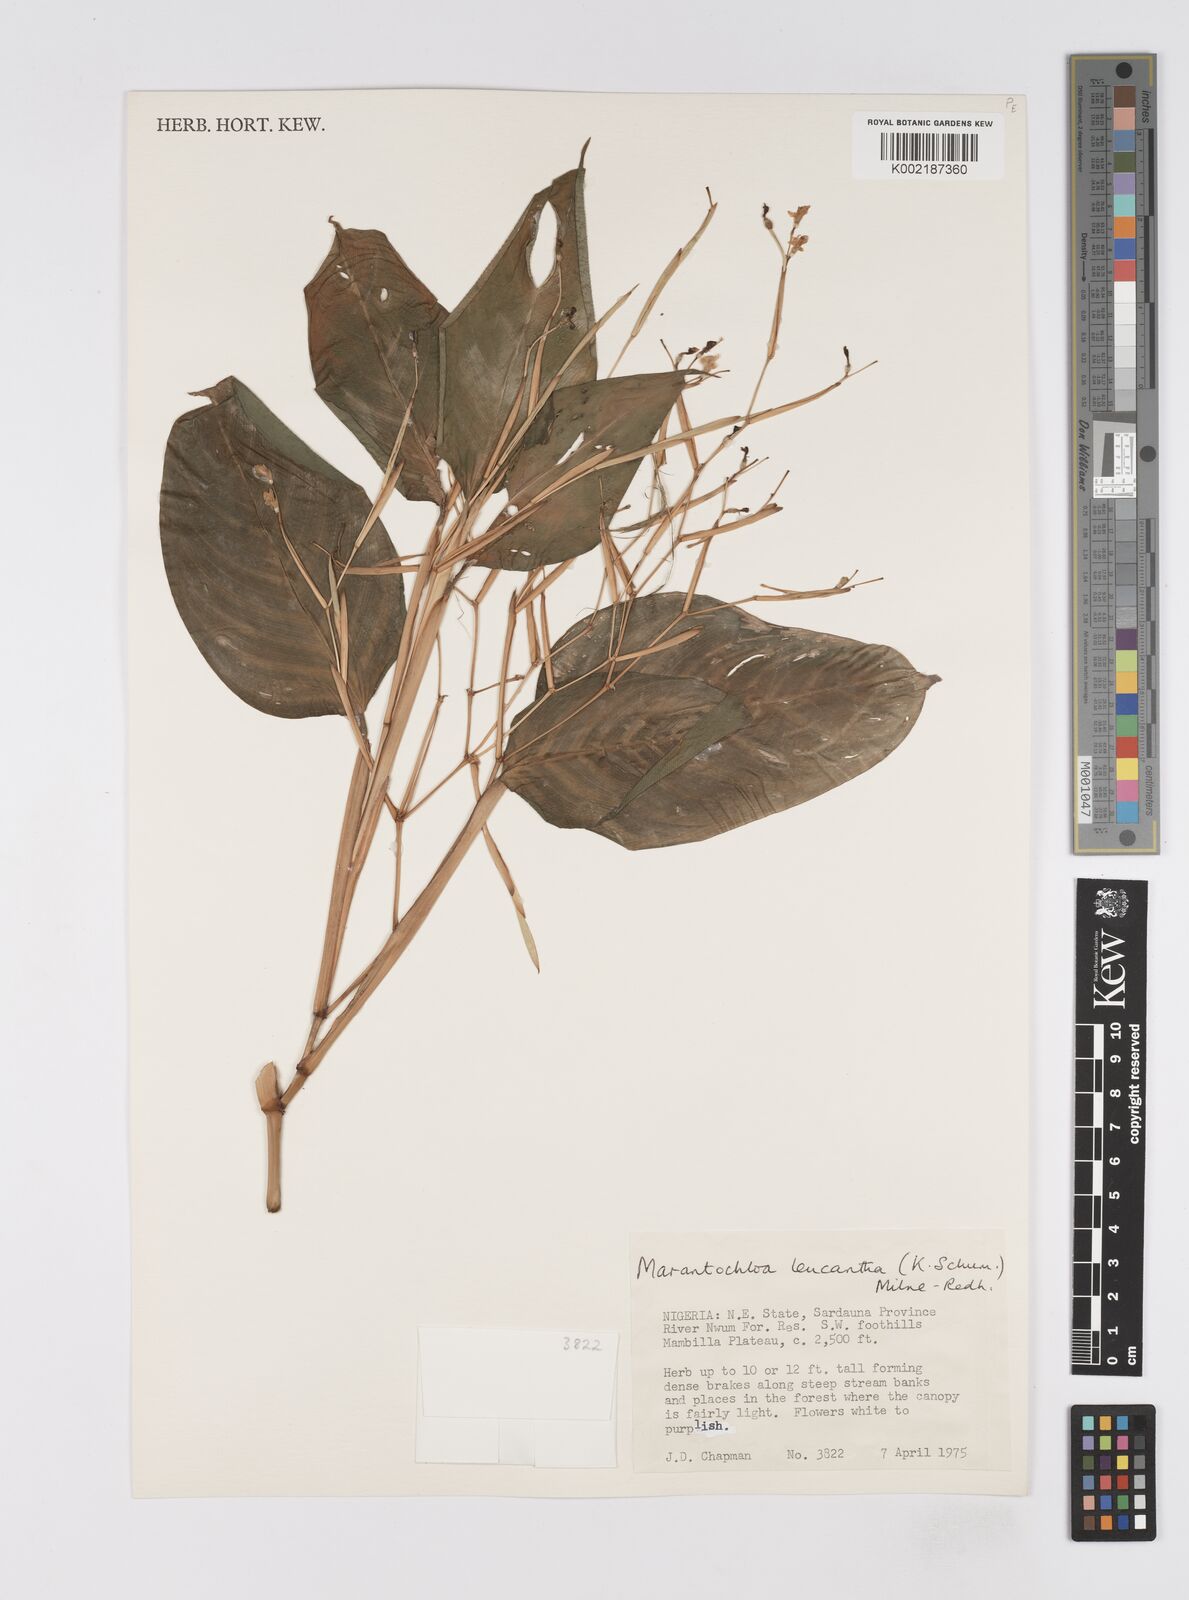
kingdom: Plantae
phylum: Tracheophyta
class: Liliopsida
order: Zingiberales
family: Marantaceae
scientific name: Marantaceae
